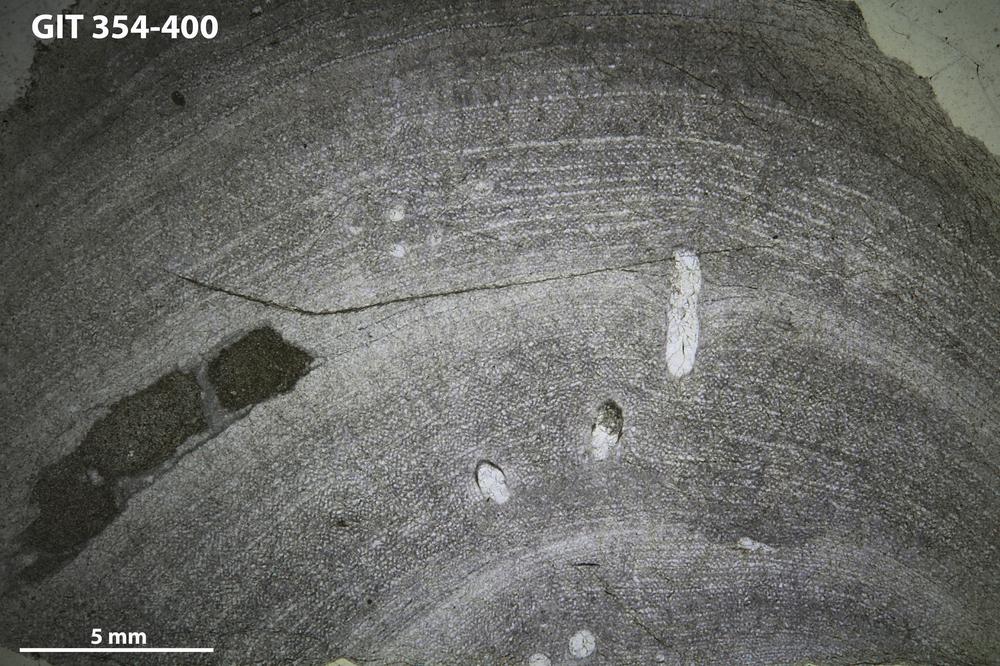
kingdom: Animalia
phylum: Porifera
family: Ecclimadictyidae
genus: Ecclimadictyon
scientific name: Ecclimadictyon Clathrodictyon microvesiculosum
